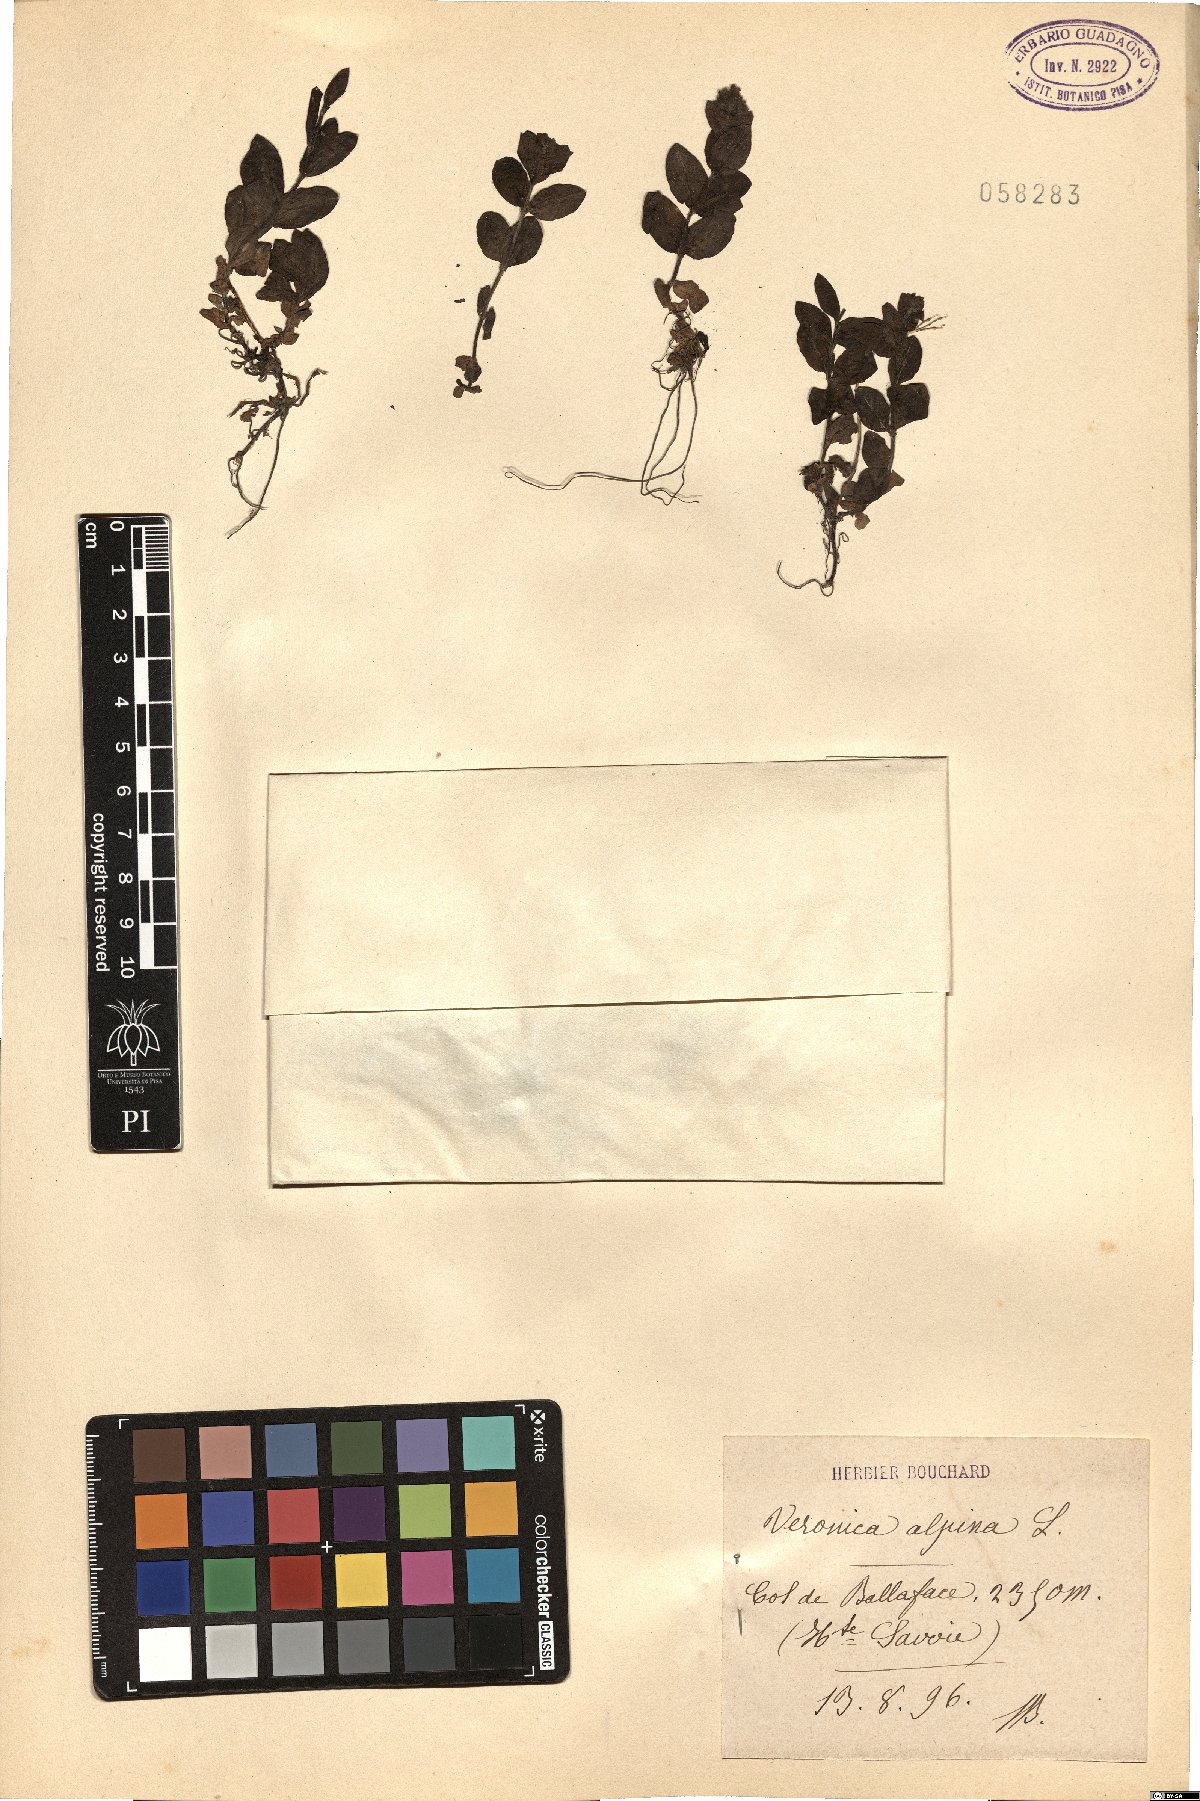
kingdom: Plantae
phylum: Tracheophyta
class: Magnoliopsida
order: Lamiales
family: Plantaginaceae
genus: Veronica
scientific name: Veronica alpina
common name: Alpine speedwell
